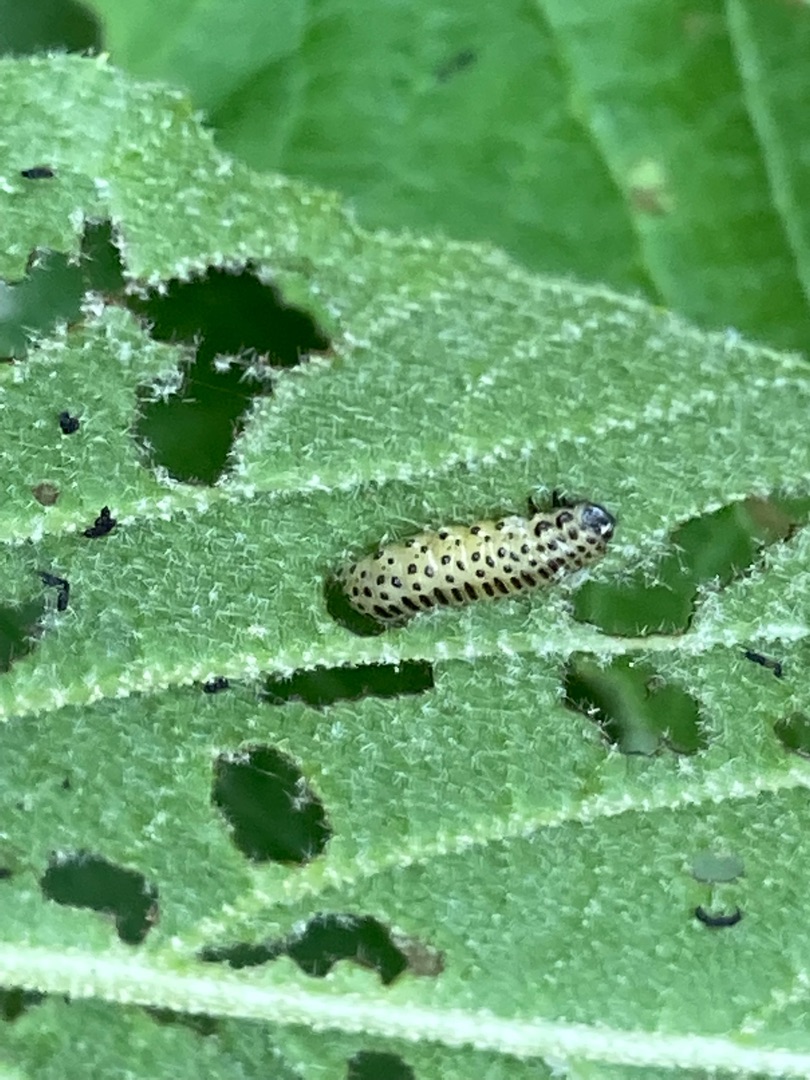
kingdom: Animalia
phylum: Arthropoda
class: Insecta
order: Coleoptera
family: Chrysomelidae
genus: Pyrrhalta
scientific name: Pyrrhalta viburni
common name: Kvalkvedbladbille
